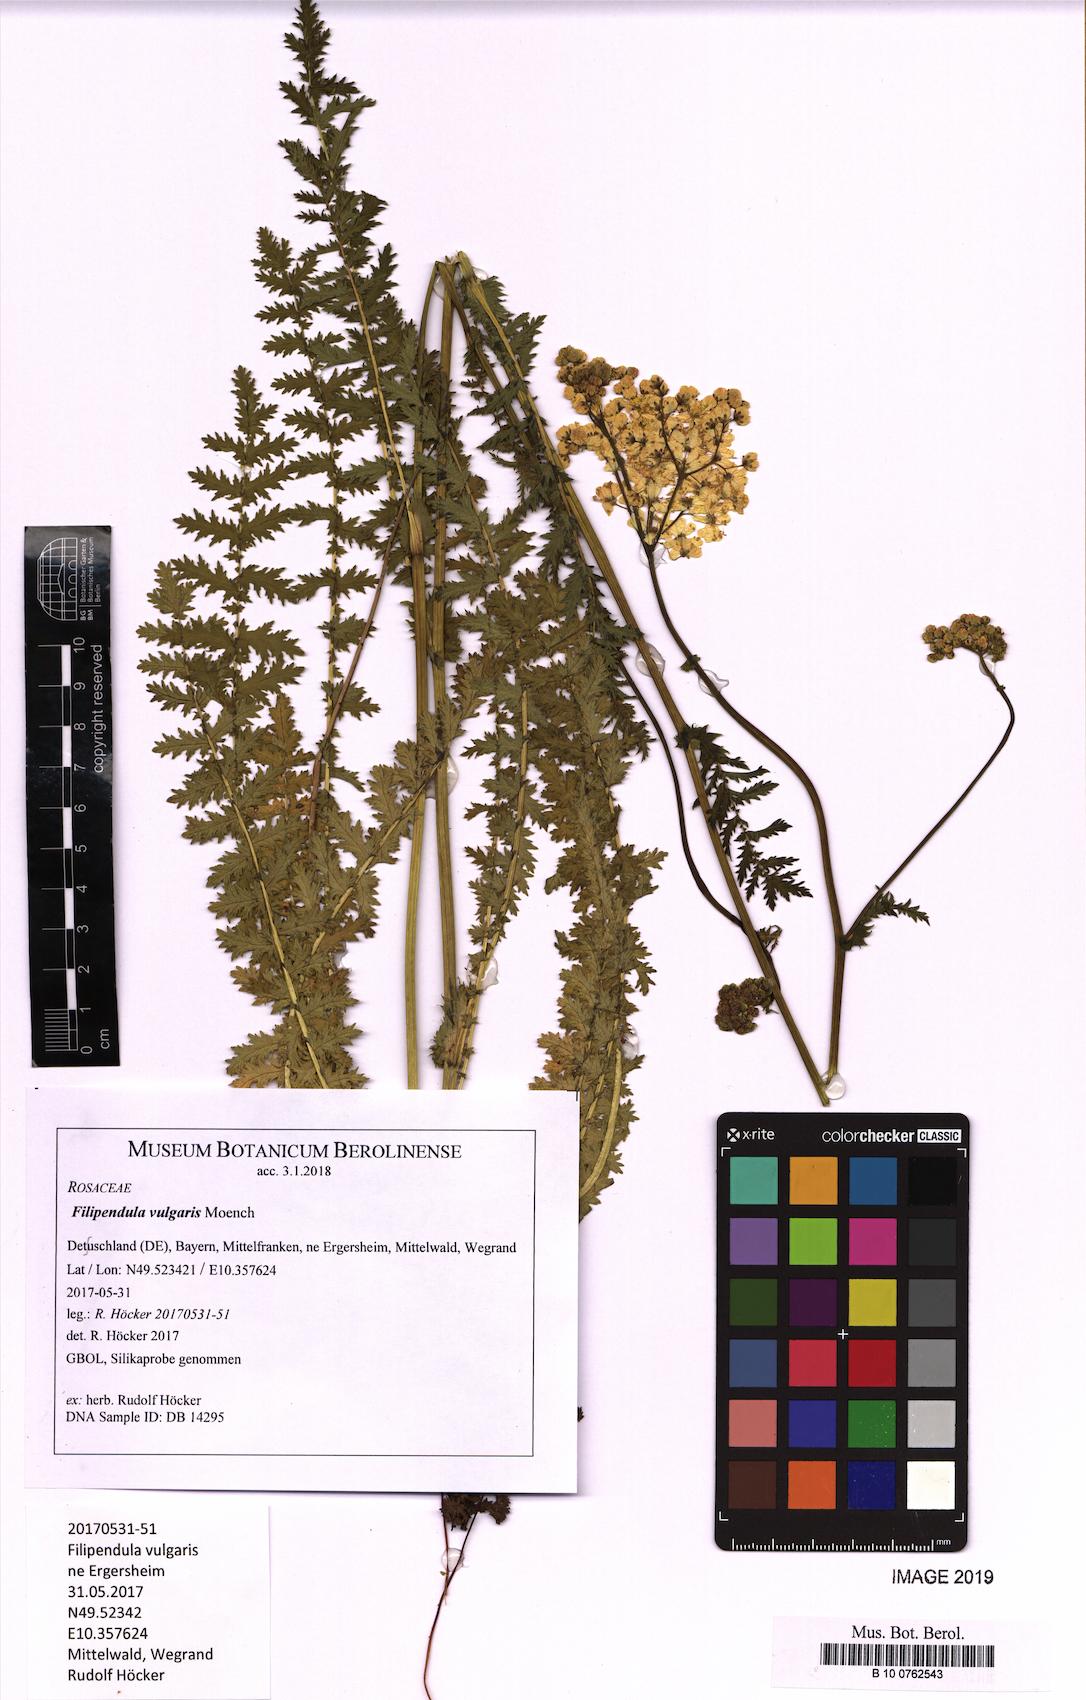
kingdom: Plantae
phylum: Tracheophyta
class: Magnoliopsida
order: Rosales
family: Rosaceae
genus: Filipendula
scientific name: Filipendula vulgaris
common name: Dropwort
